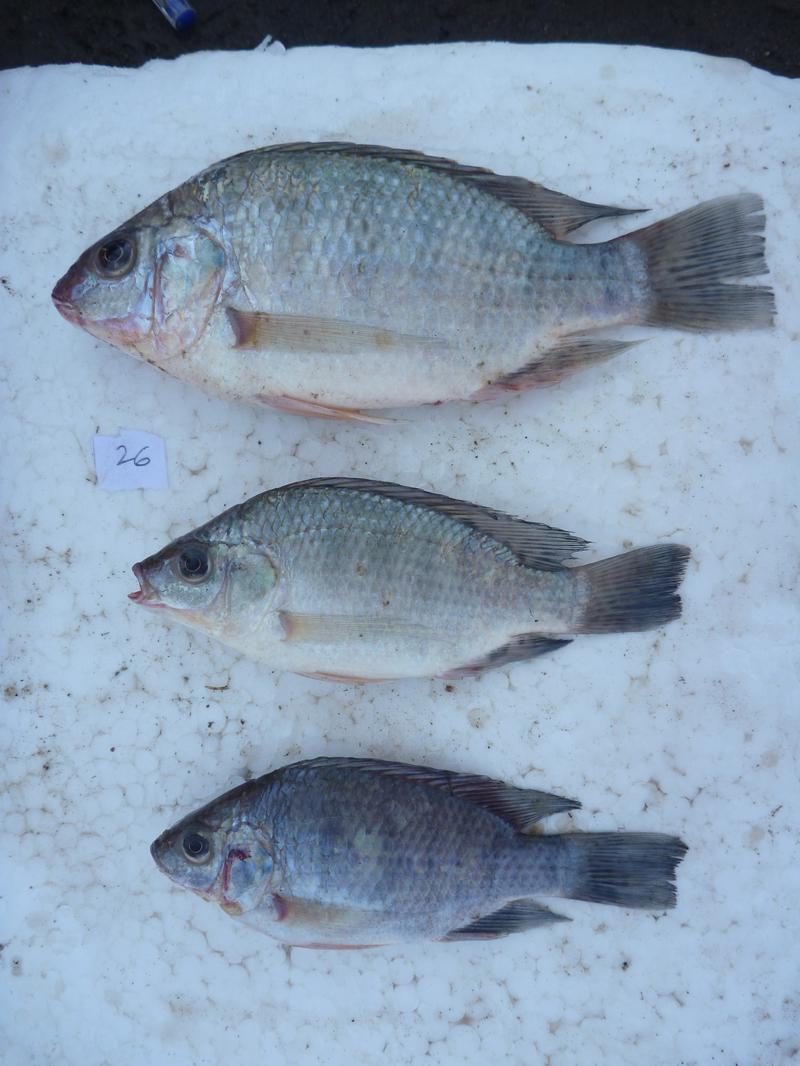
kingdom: Animalia
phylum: Chordata
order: Perciformes
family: Cichlidae
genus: Oreochromis
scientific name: Oreochromis rukwaensis
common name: Lake rukwa tilapia
